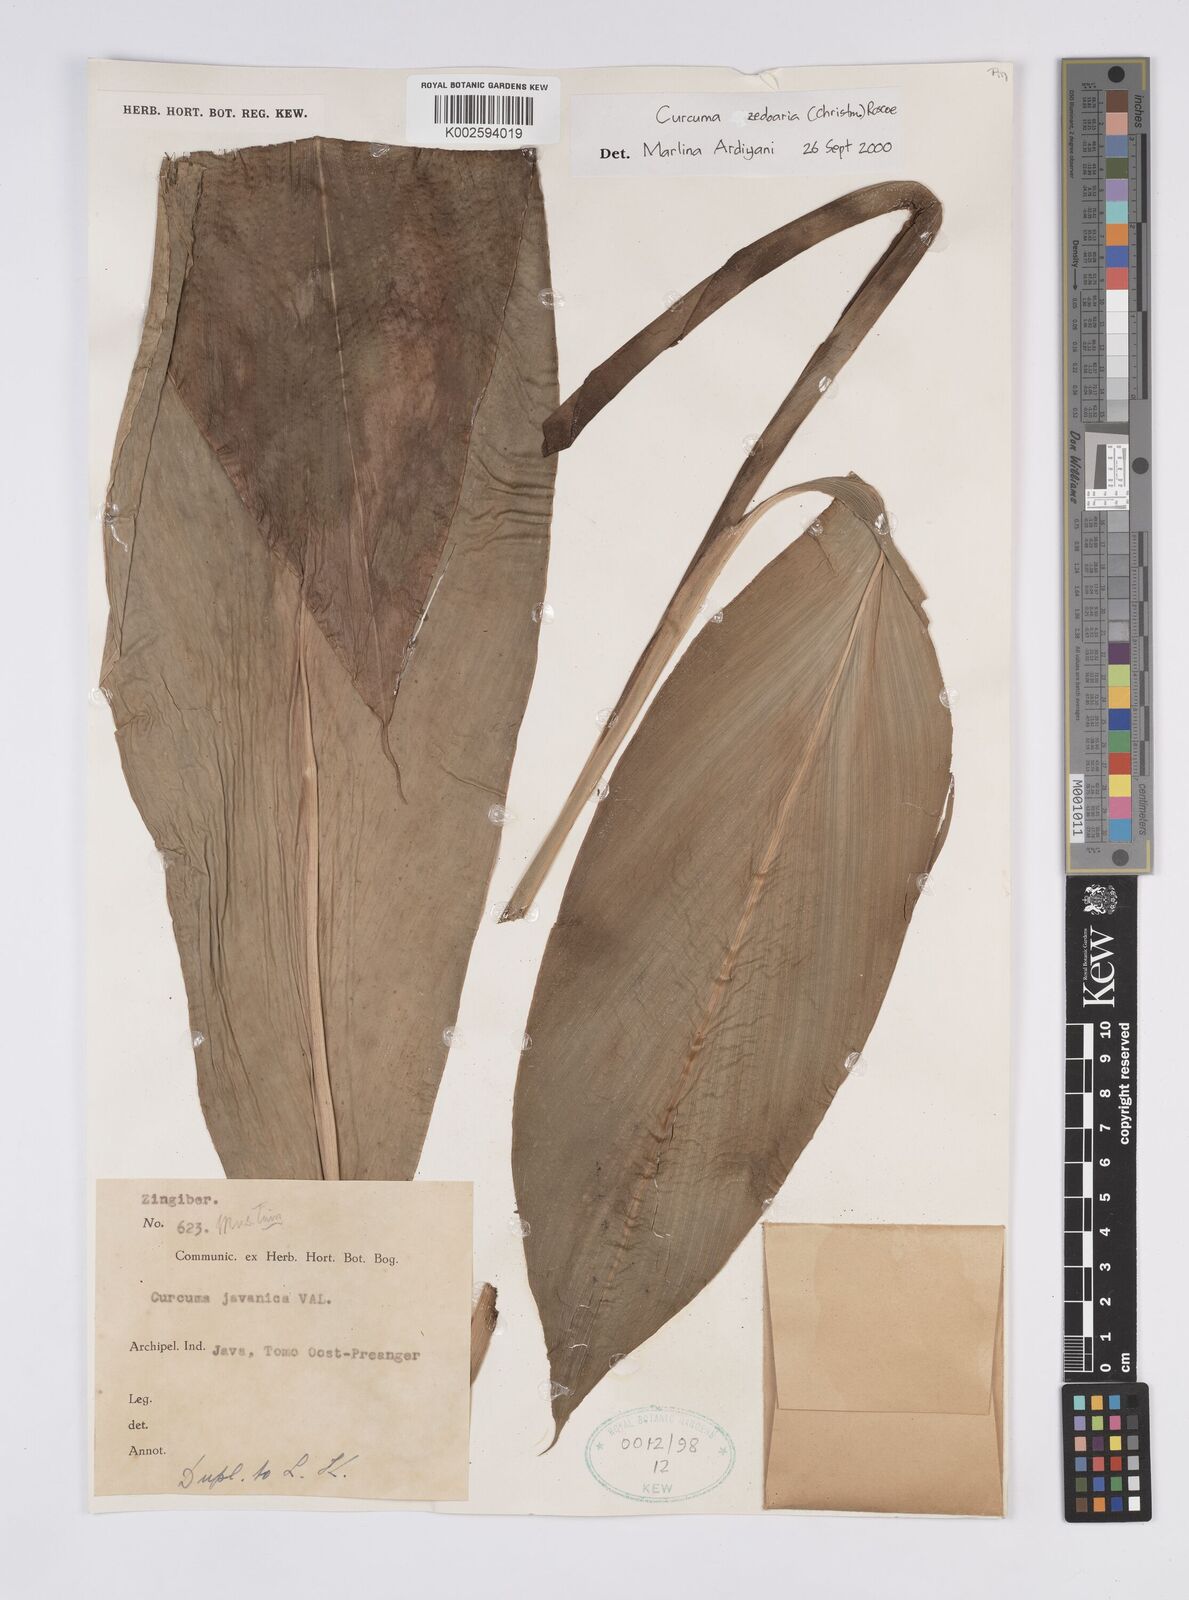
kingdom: Plantae
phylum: Tracheophyta
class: Liliopsida
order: Zingiberales
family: Zingiberaceae
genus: Curcuma
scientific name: Curcuma zedoaria
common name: Zedoary
